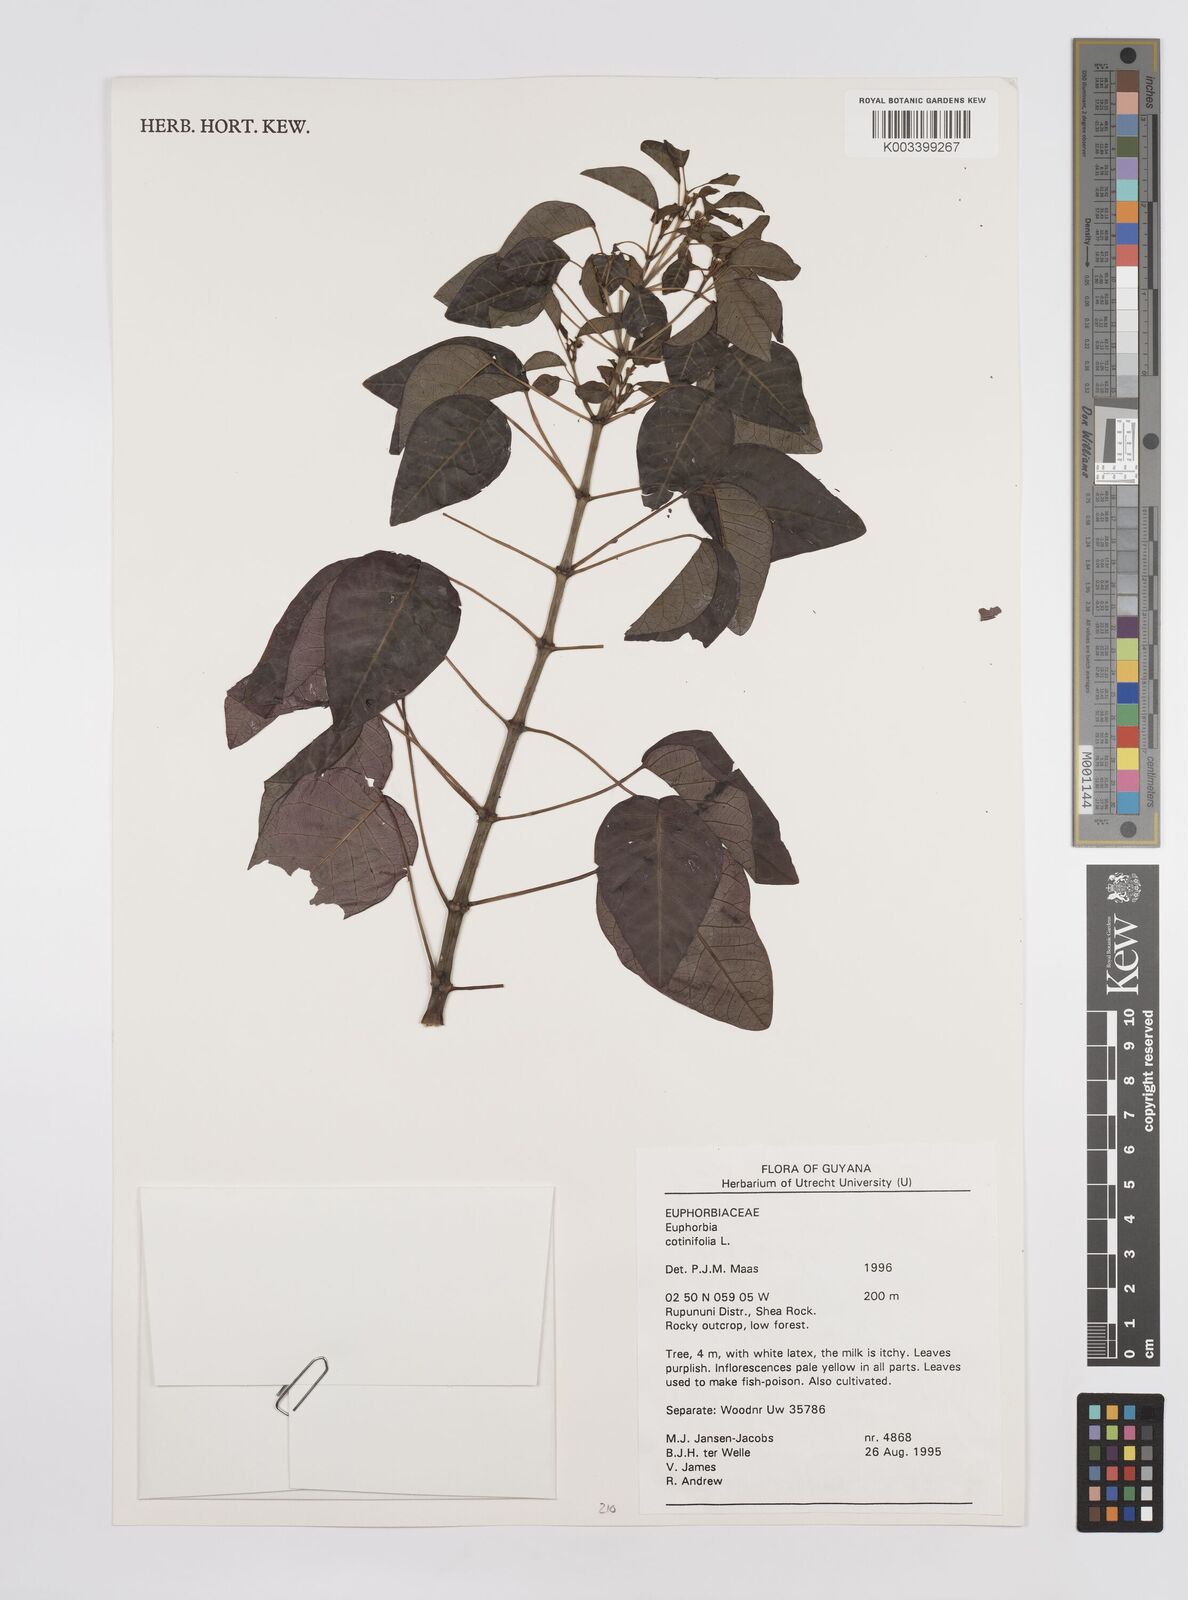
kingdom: Plantae
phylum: Tracheophyta
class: Magnoliopsida
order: Malpighiales
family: Euphorbiaceae
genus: Euphorbia
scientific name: Euphorbia cotinifolia
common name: Tropical smokebush
